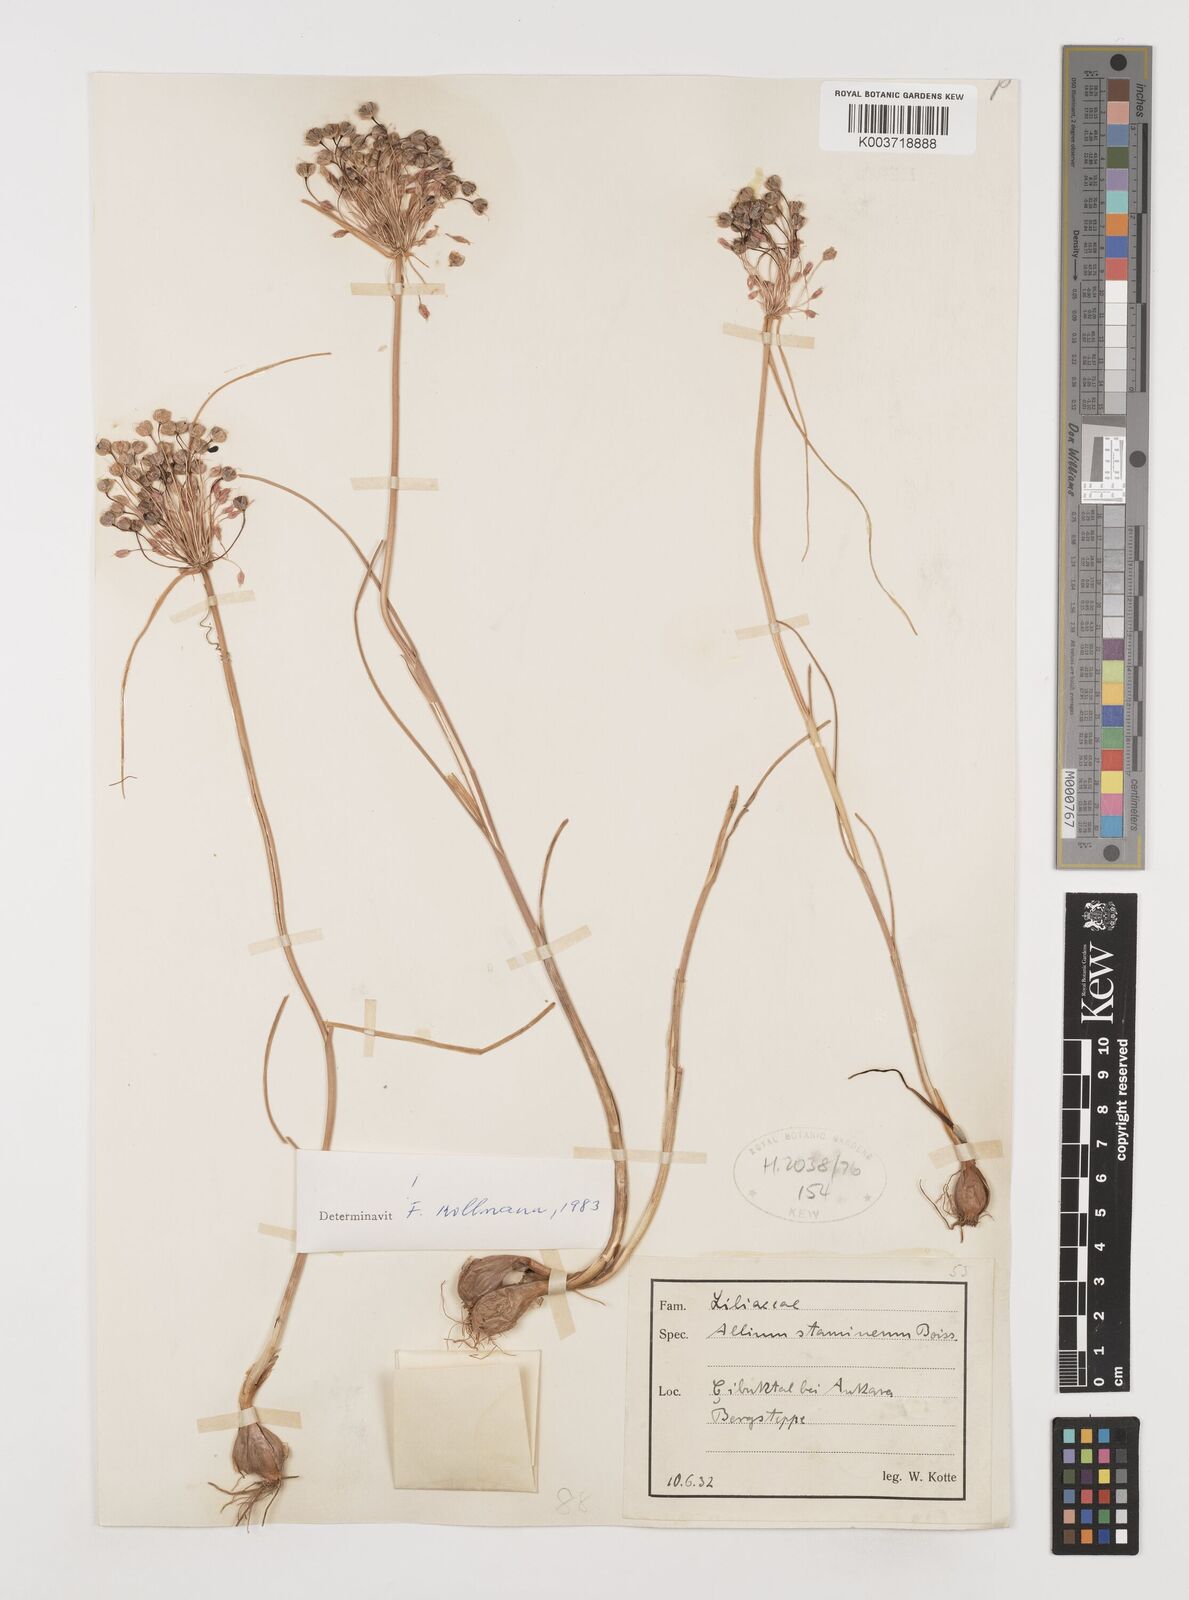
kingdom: Plantae
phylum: Tracheophyta
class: Liliopsida
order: Asparagales
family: Amaryllidaceae
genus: Allium
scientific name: Allium stamineum
